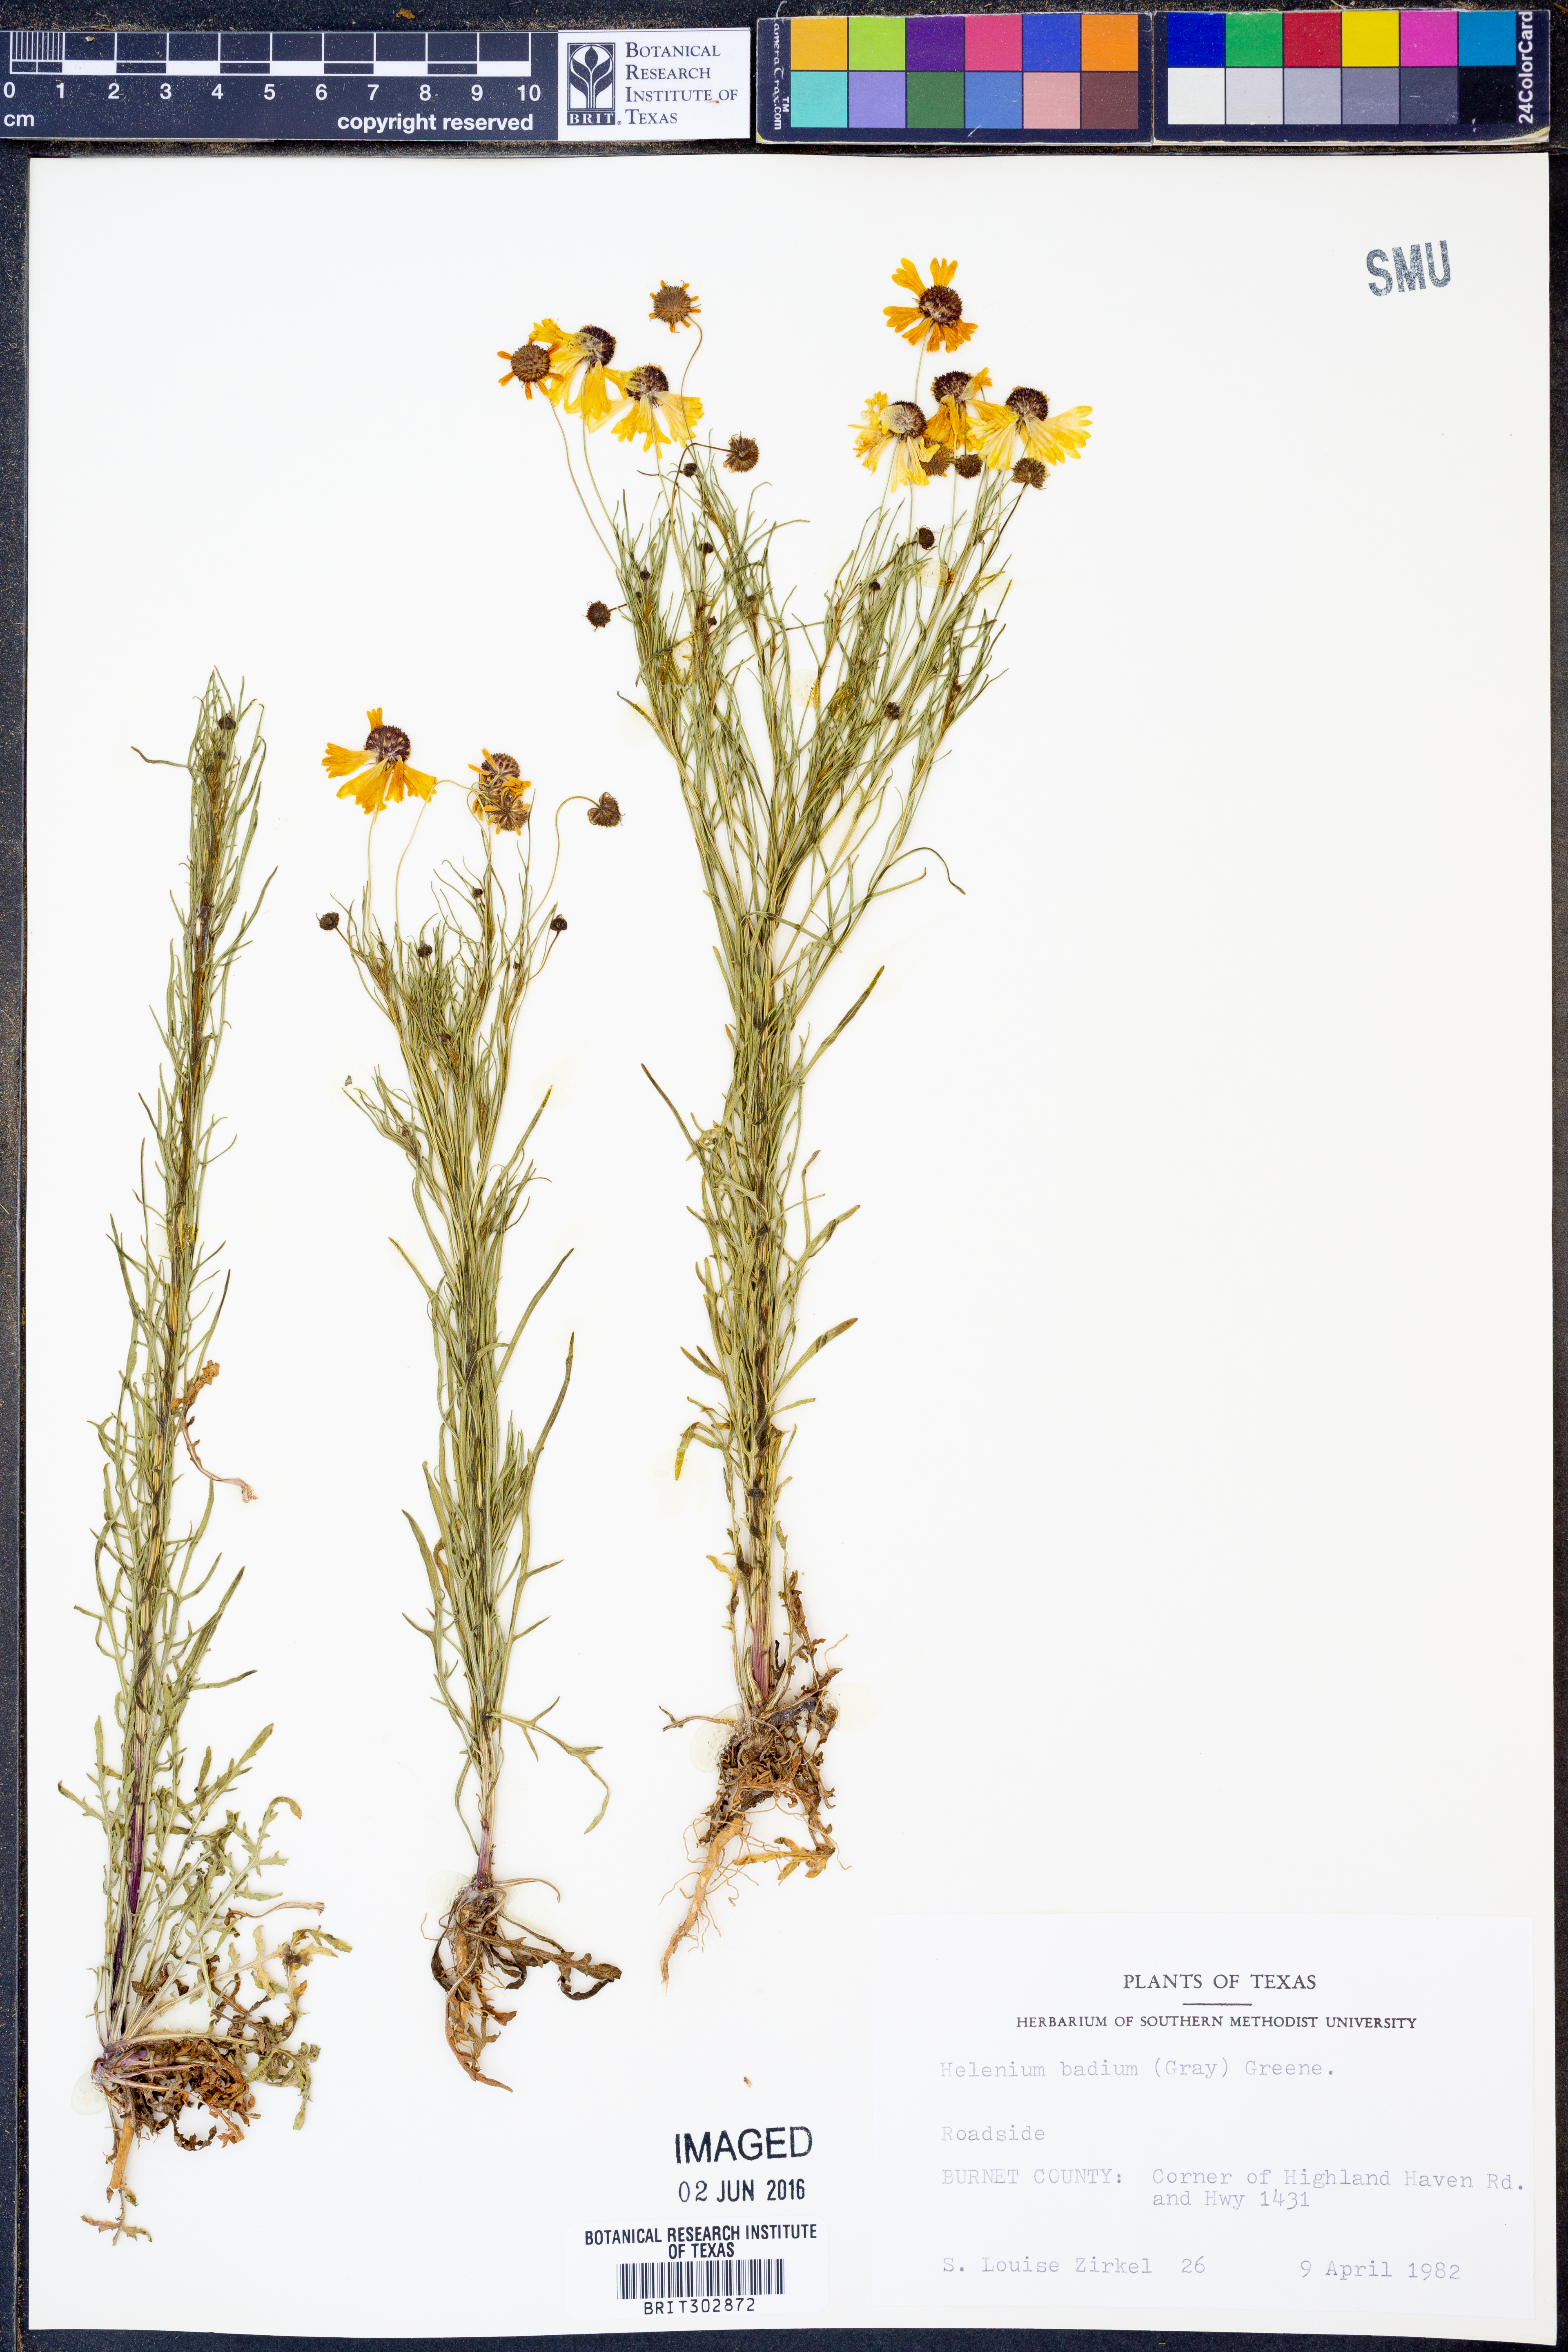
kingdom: Plantae
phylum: Tracheophyta
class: Magnoliopsida
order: Asterales
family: Asteraceae
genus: Helenium
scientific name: Helenium amarum
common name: Bitter sneezeweed
